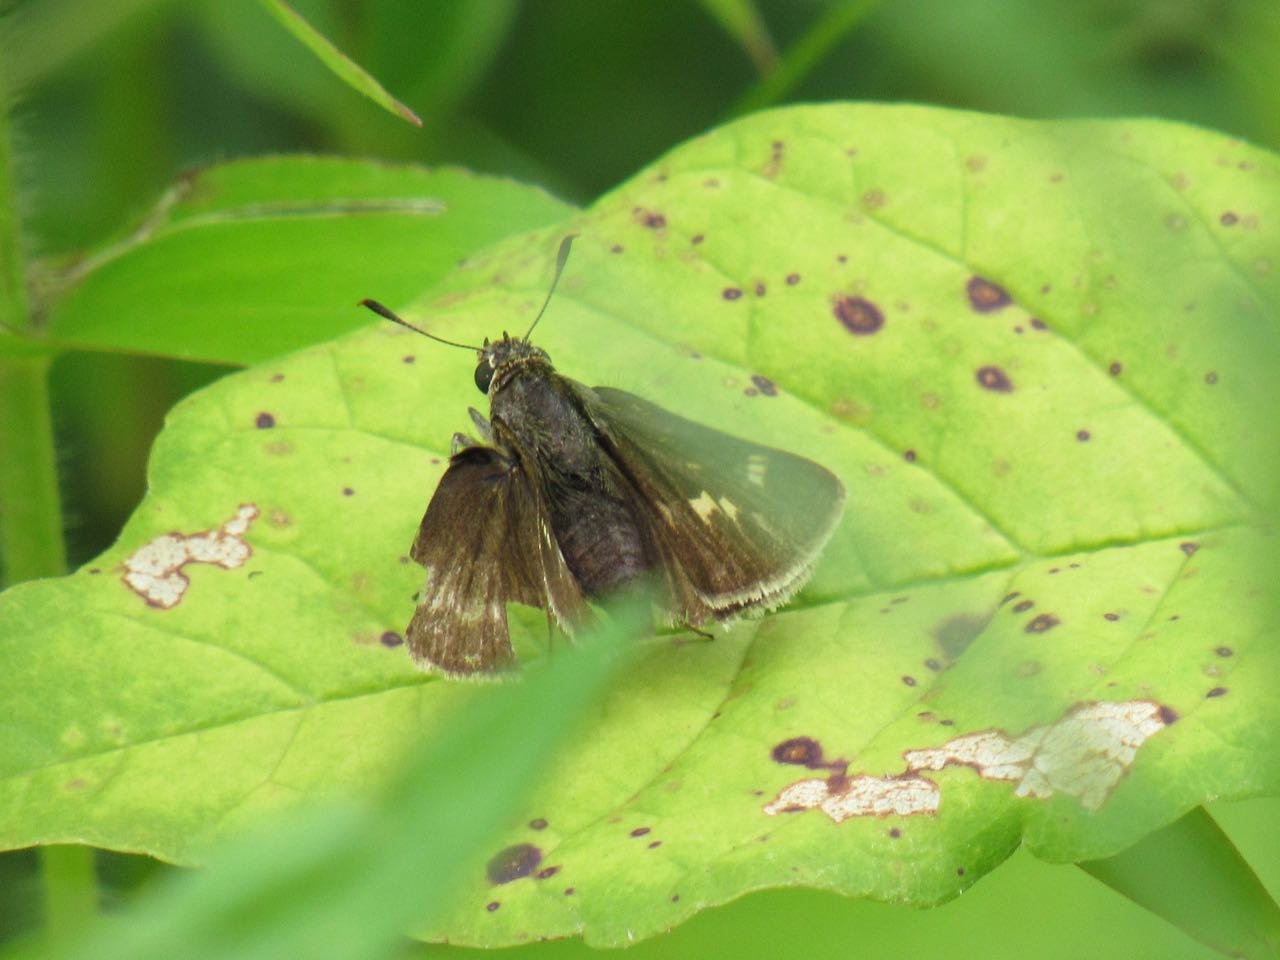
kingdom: Animalia
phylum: Arthropoda
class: Insecta
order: Lepidoptera
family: Hesperiidae
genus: Polites
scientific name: Polites egeremet
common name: Northern Broken-Dash
